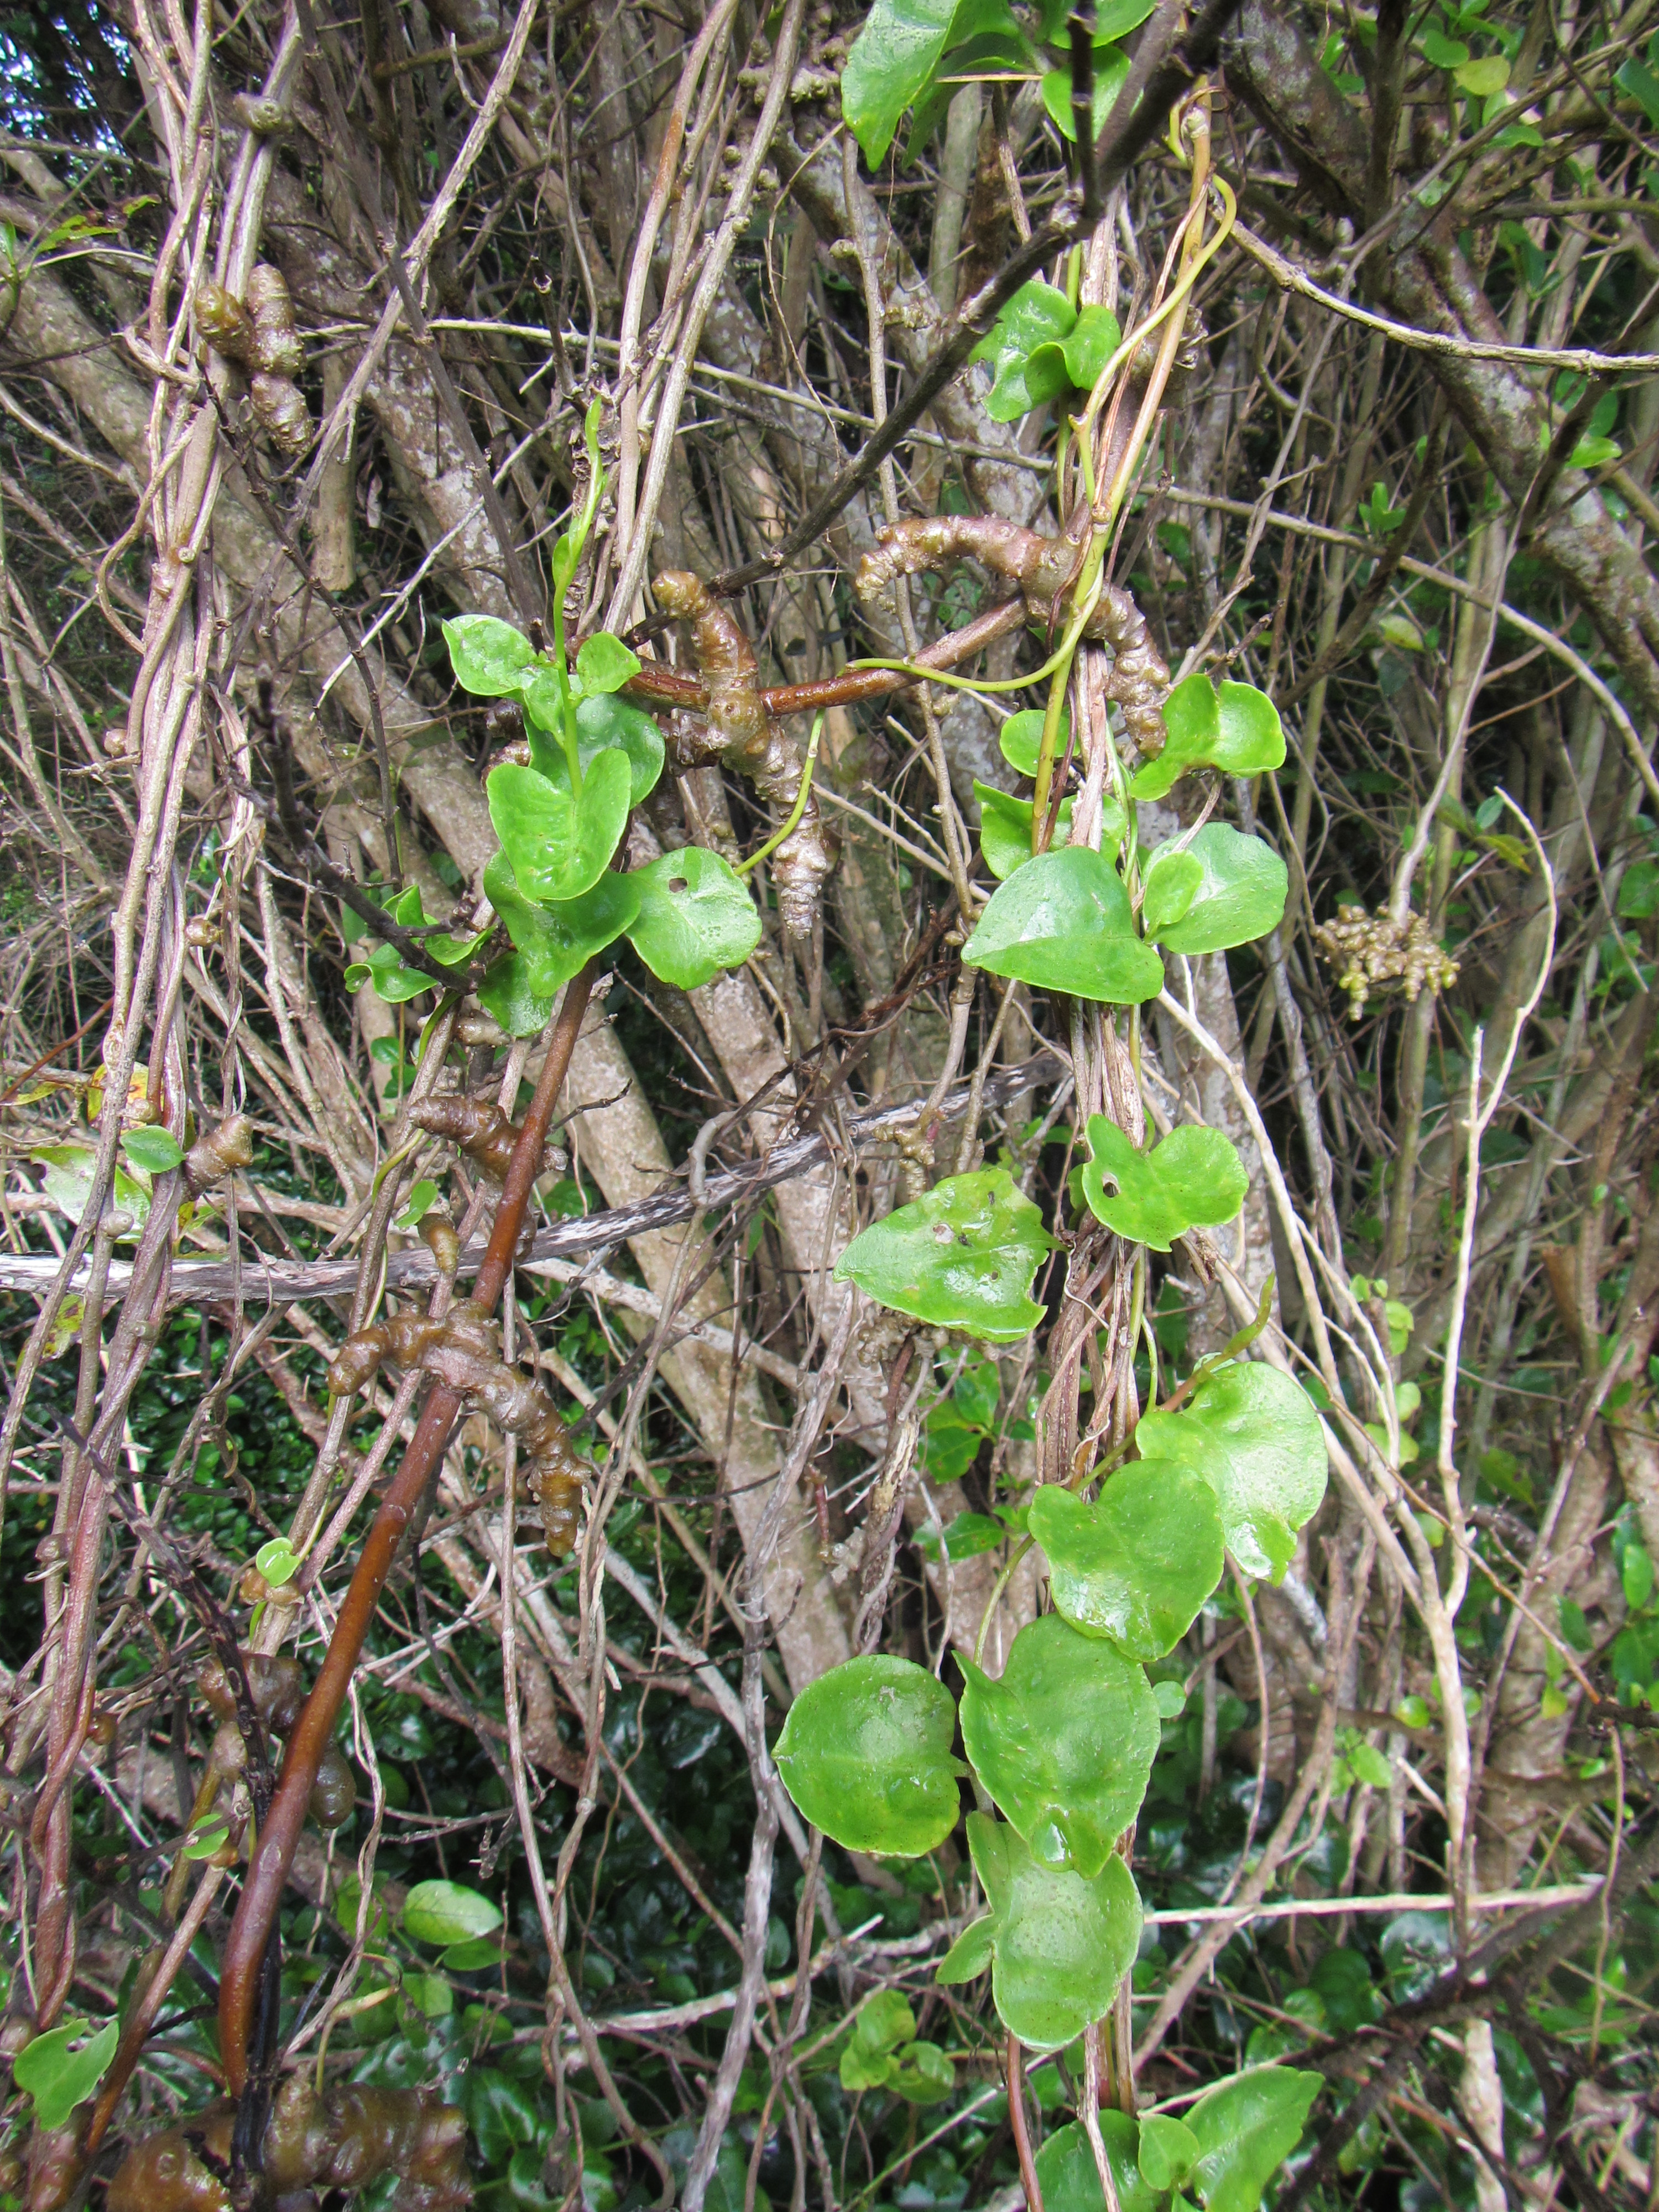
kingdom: Plantae
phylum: Tracheophyta
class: Magnoliopsida
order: Caryophyllales
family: Basellaceae
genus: Anredera
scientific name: Anredera cordifolia
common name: Heartleaf madeiravine
